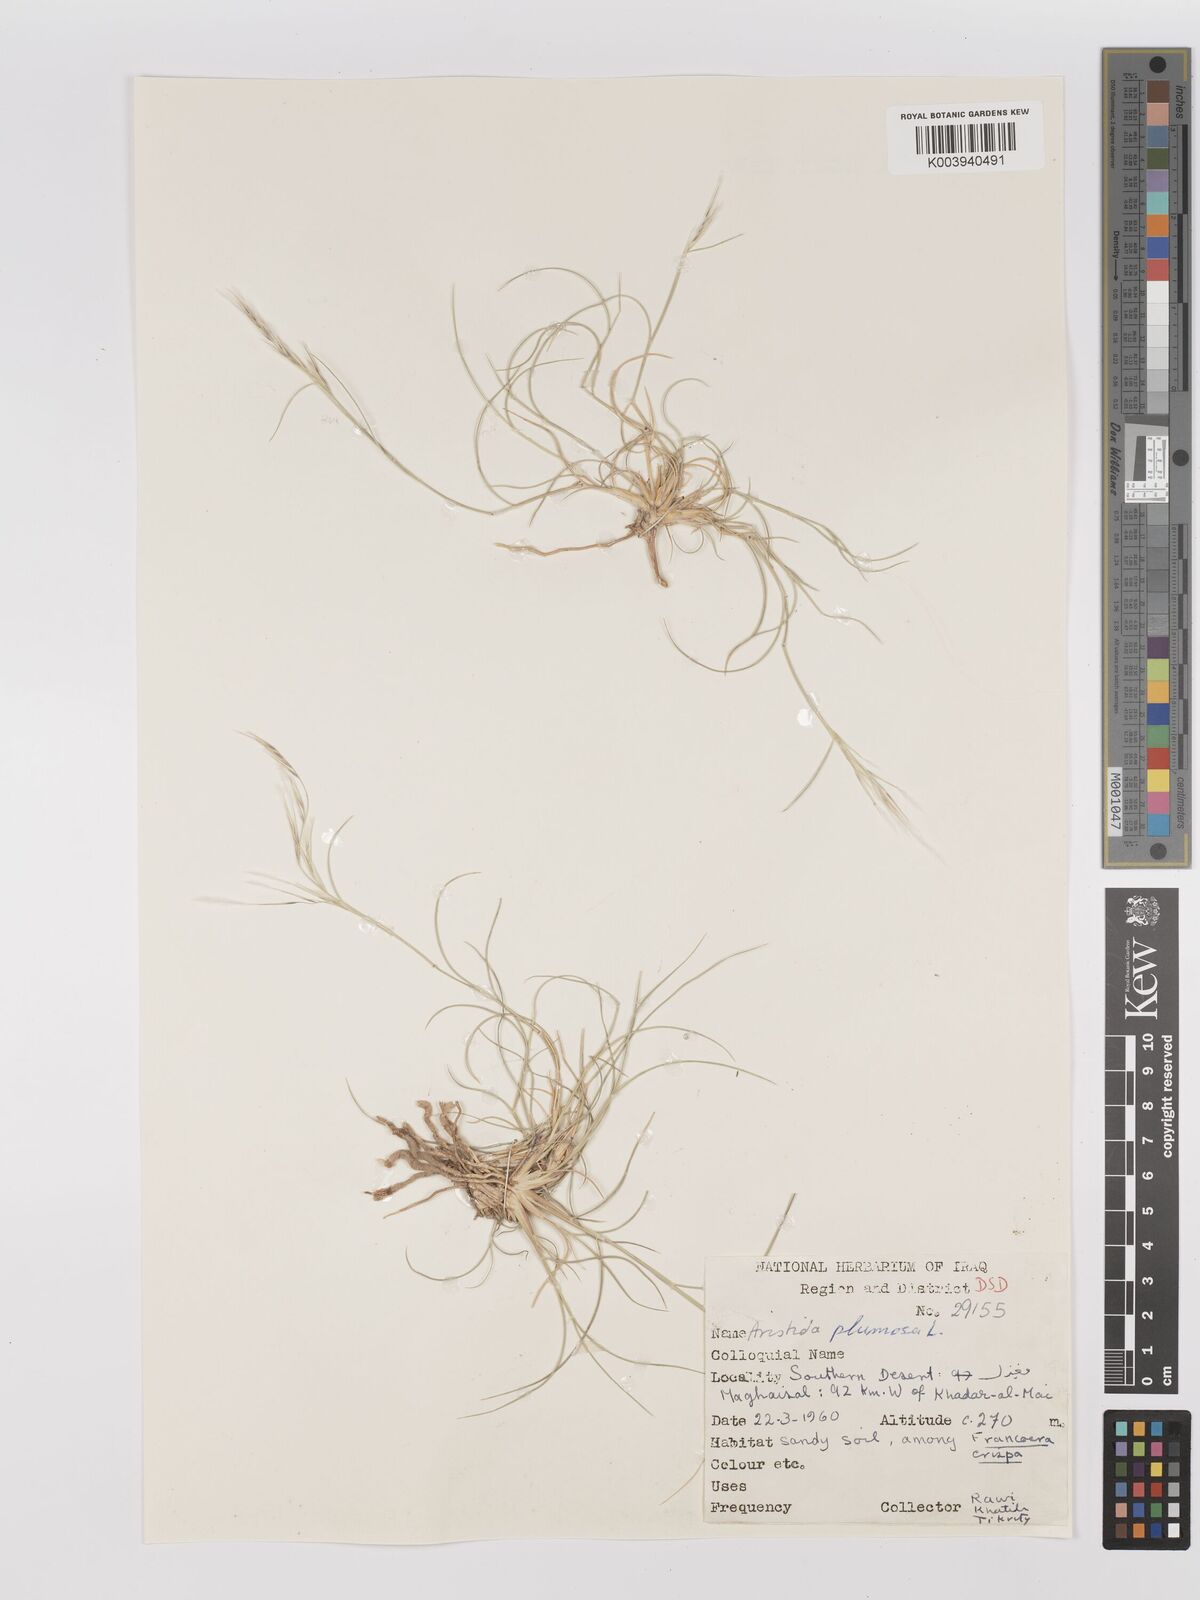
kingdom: Plantae
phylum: Tracheophyta
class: Liliopsida
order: Poales
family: Poaceae
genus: Stipagrostis
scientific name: Stipagrostis plumosa
